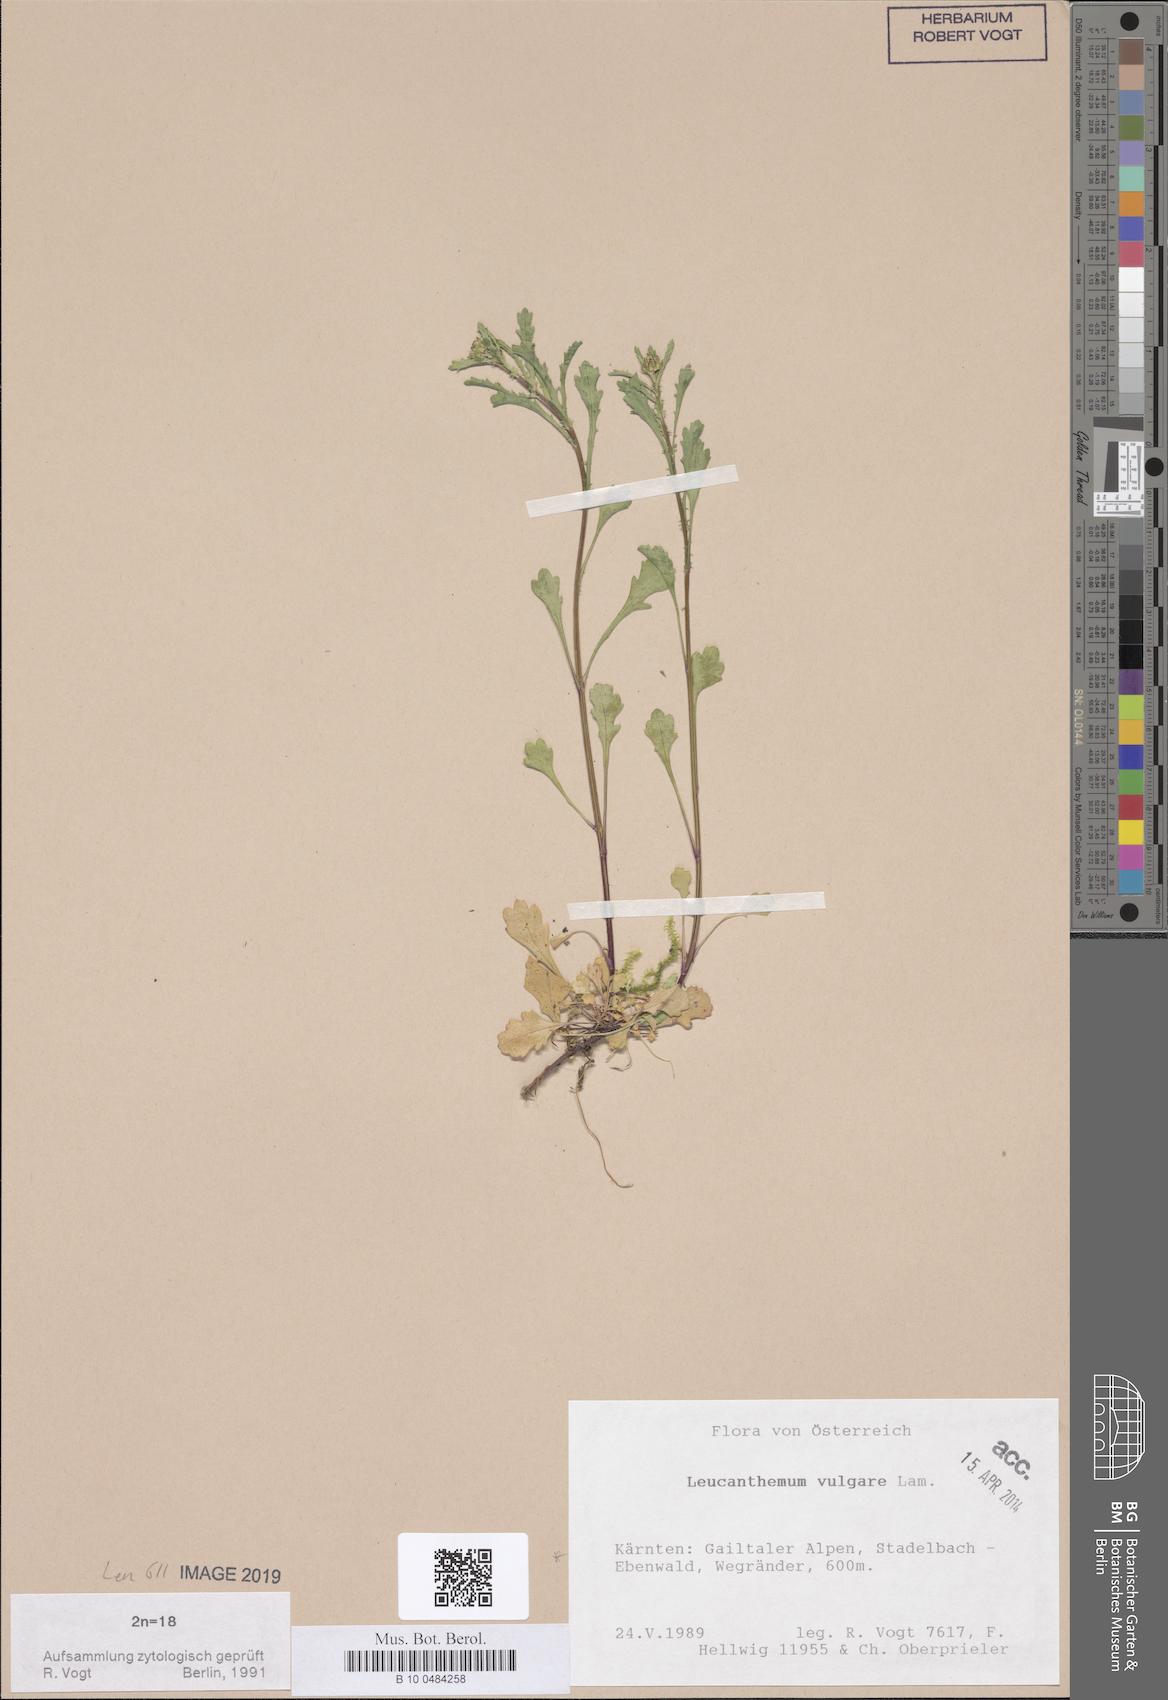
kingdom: Plantae
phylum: Tracheophyta
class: Magnoliopsida
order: Asterales
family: Asteraceae
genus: Leucanthemum
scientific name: Leucanthemum vulgare
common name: Oxeye daisy
